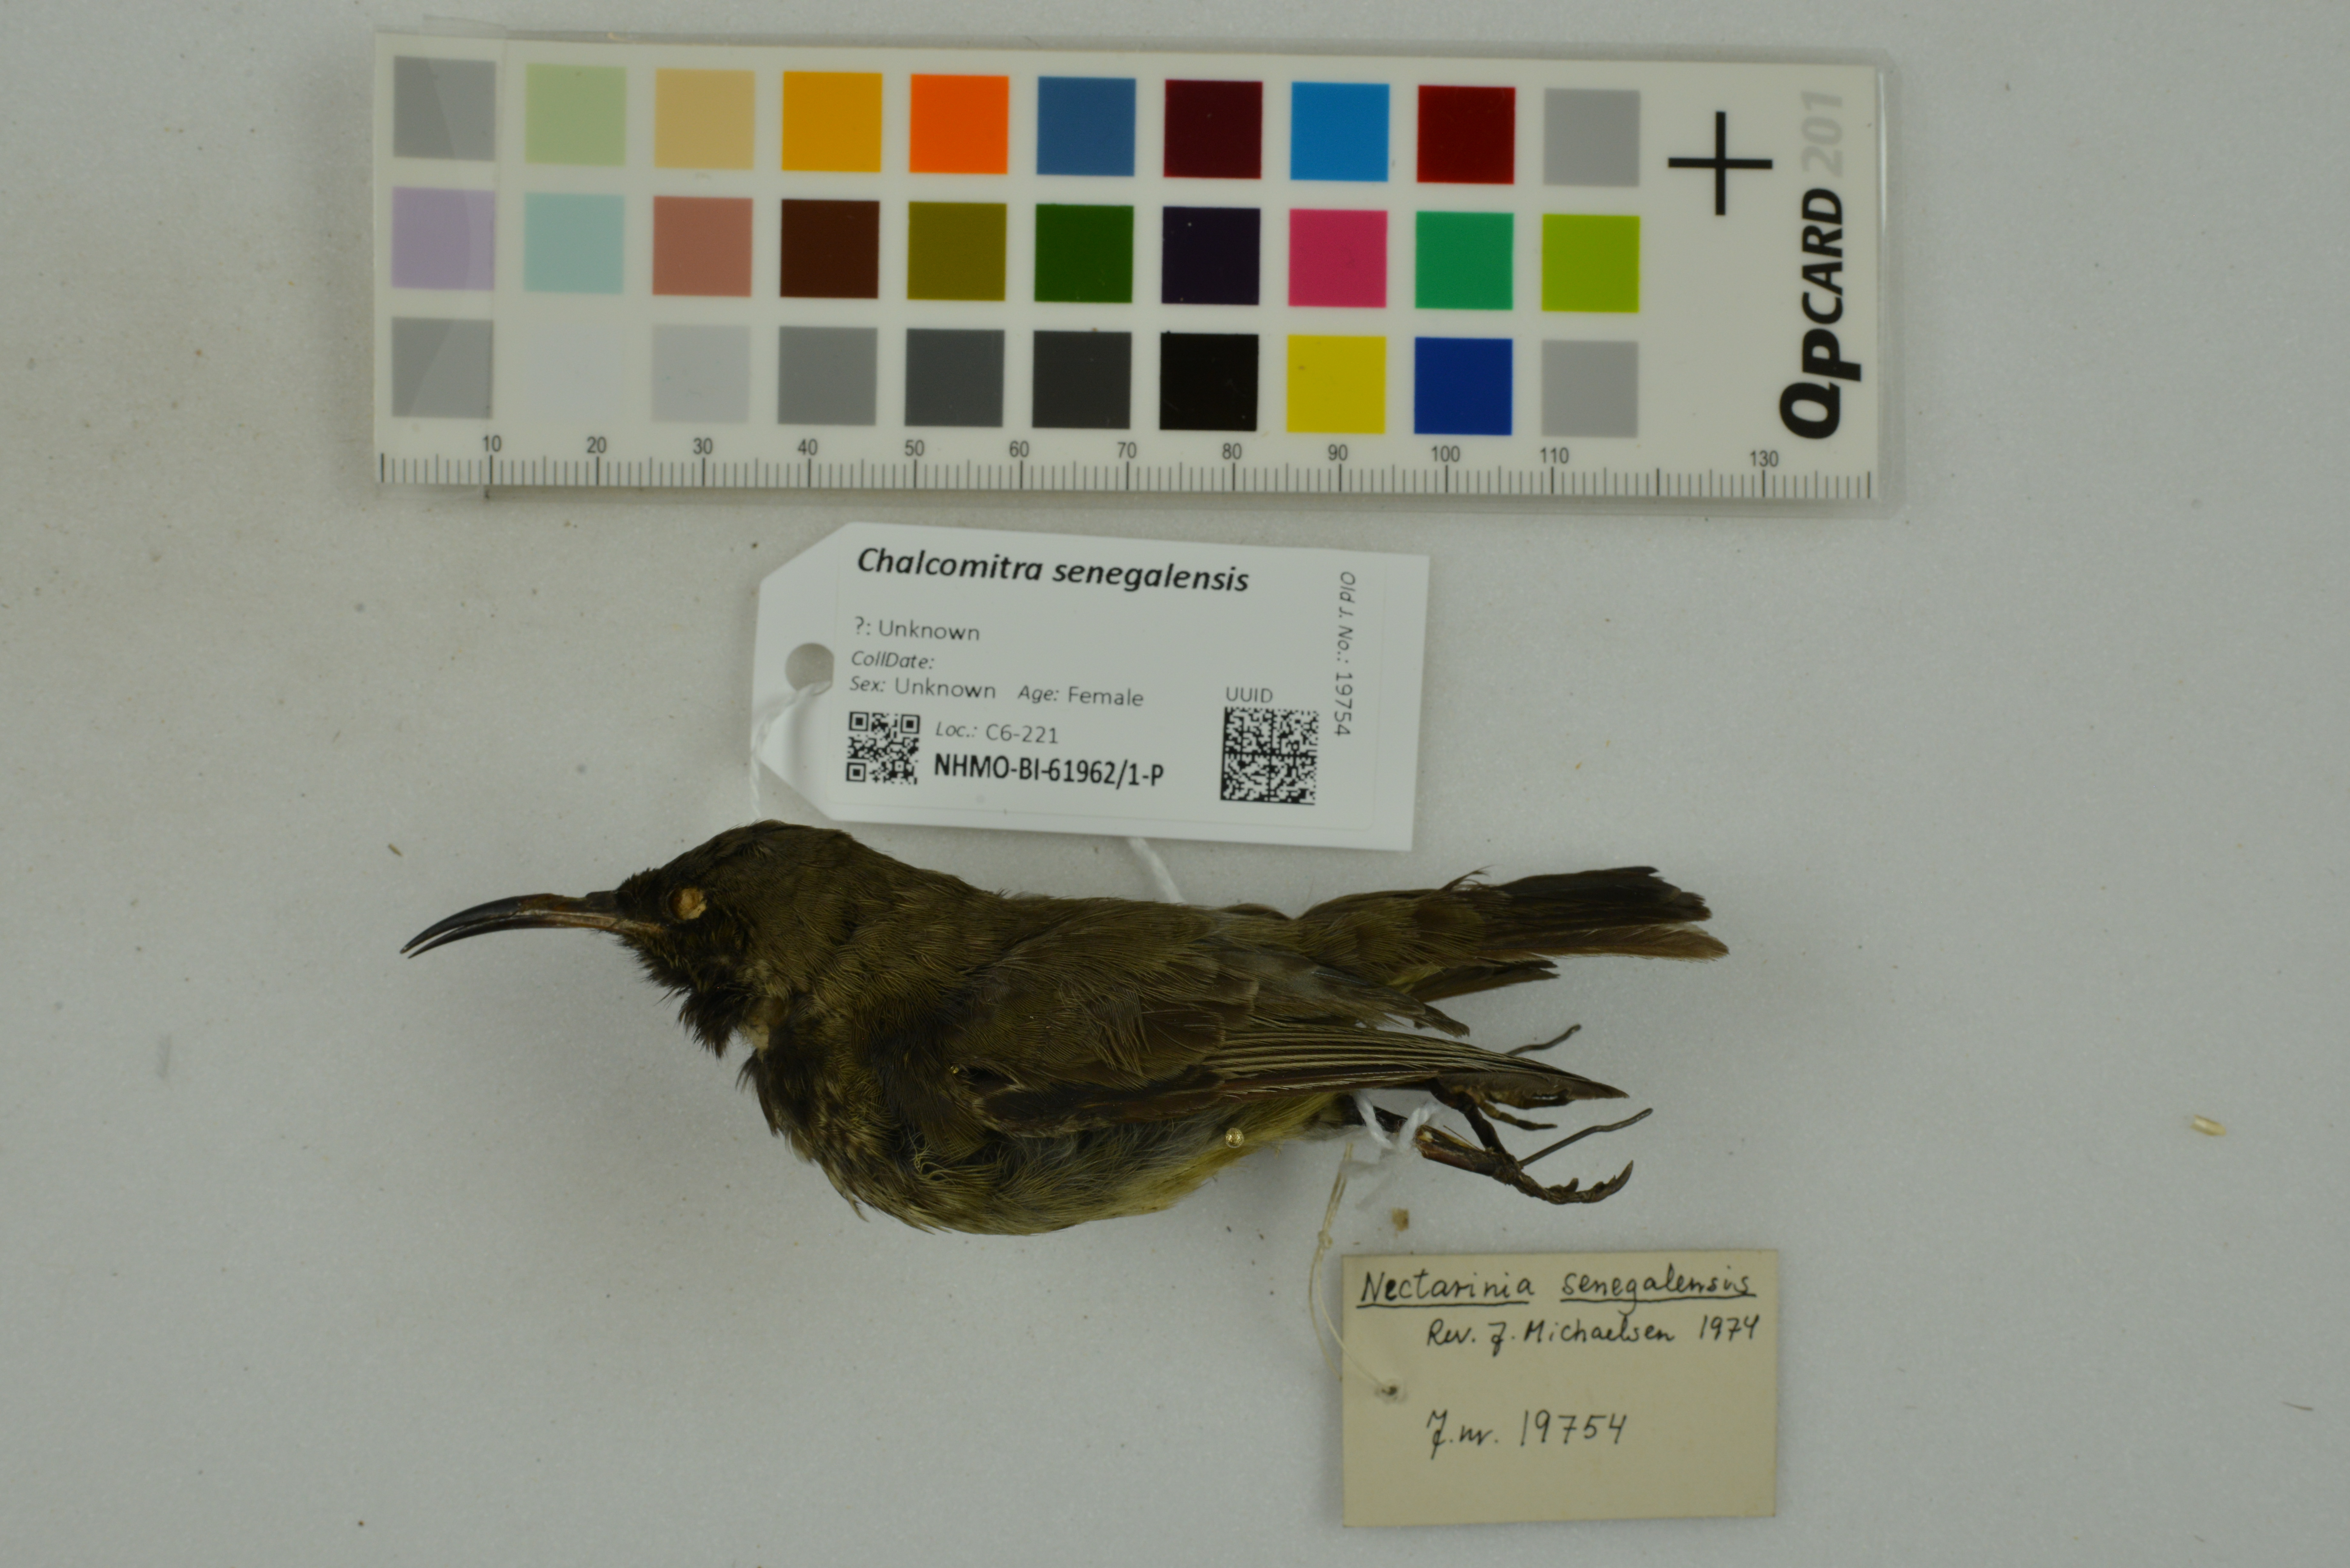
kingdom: Animalia
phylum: Chordata
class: Aves
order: Passeriformes
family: Nectariniidae
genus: Chalcomitra
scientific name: Chalcomitra senegalensis
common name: Scarlet-chested sunbird
